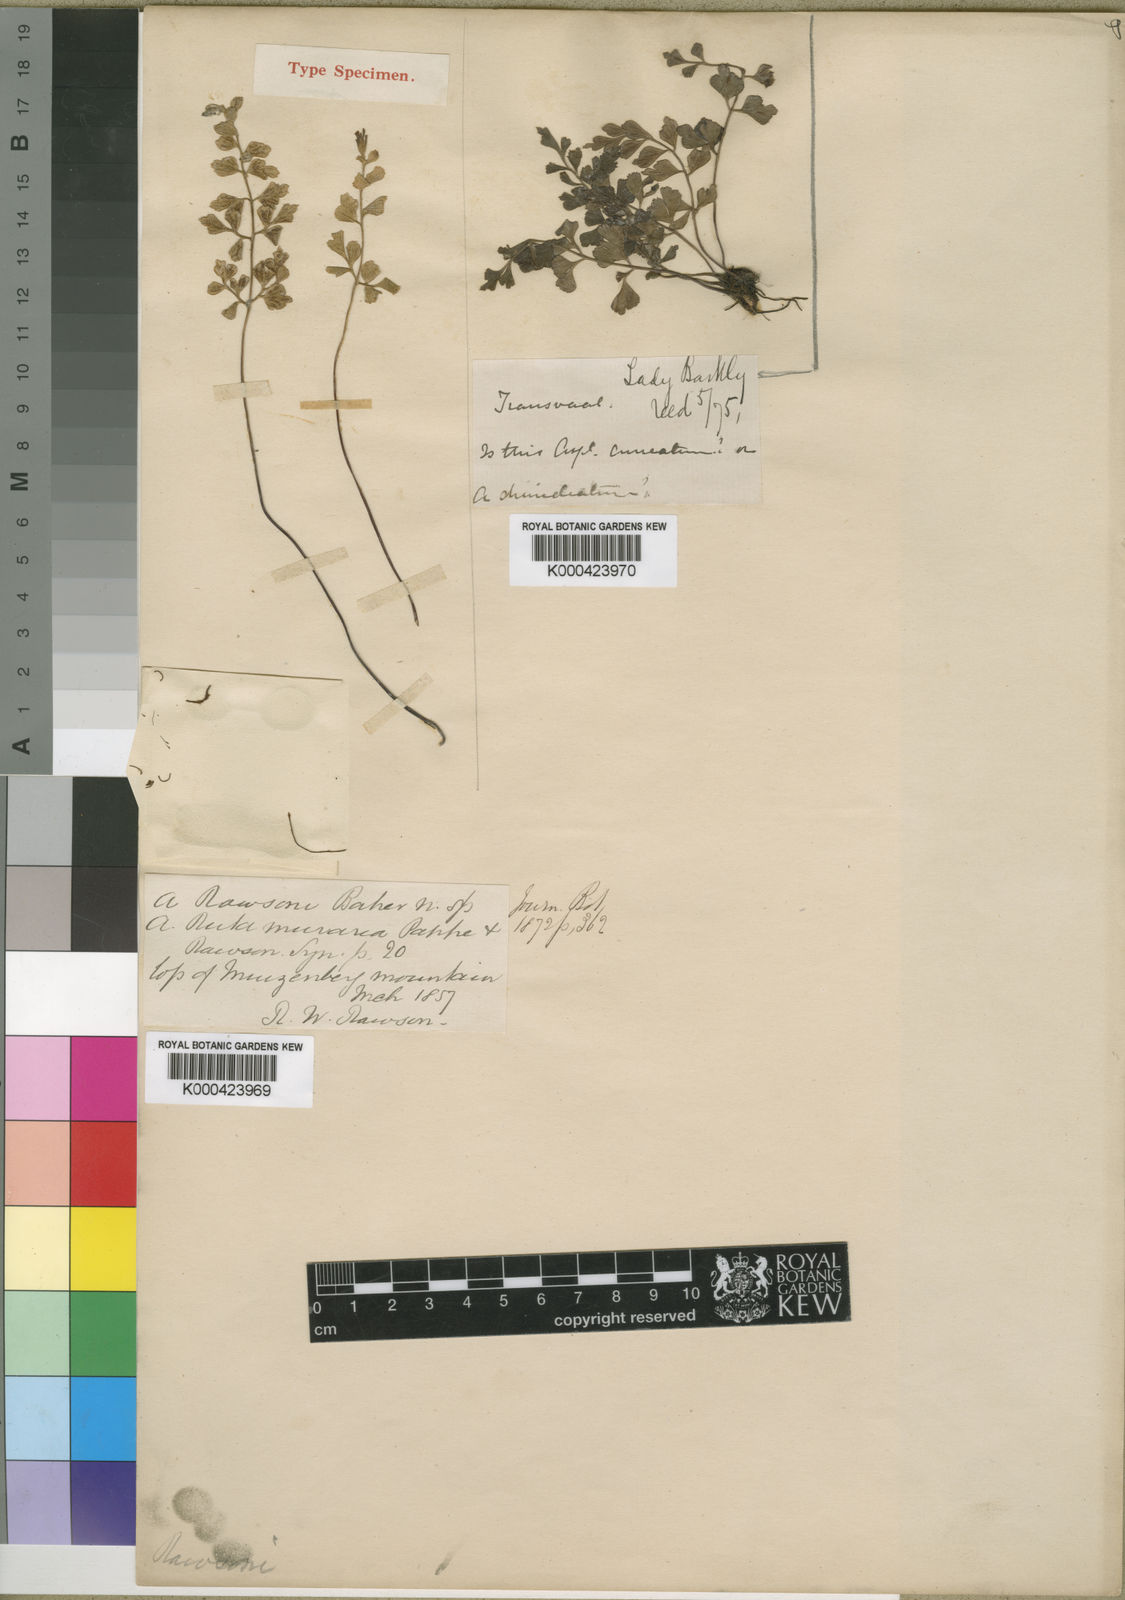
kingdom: Plantae
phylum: Tracheophyta
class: Polypodiopsida
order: Polypodiales
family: Aspleniaceae
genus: Asplenium
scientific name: Asplenium adiantum-nigrum
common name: Black spleenwort
